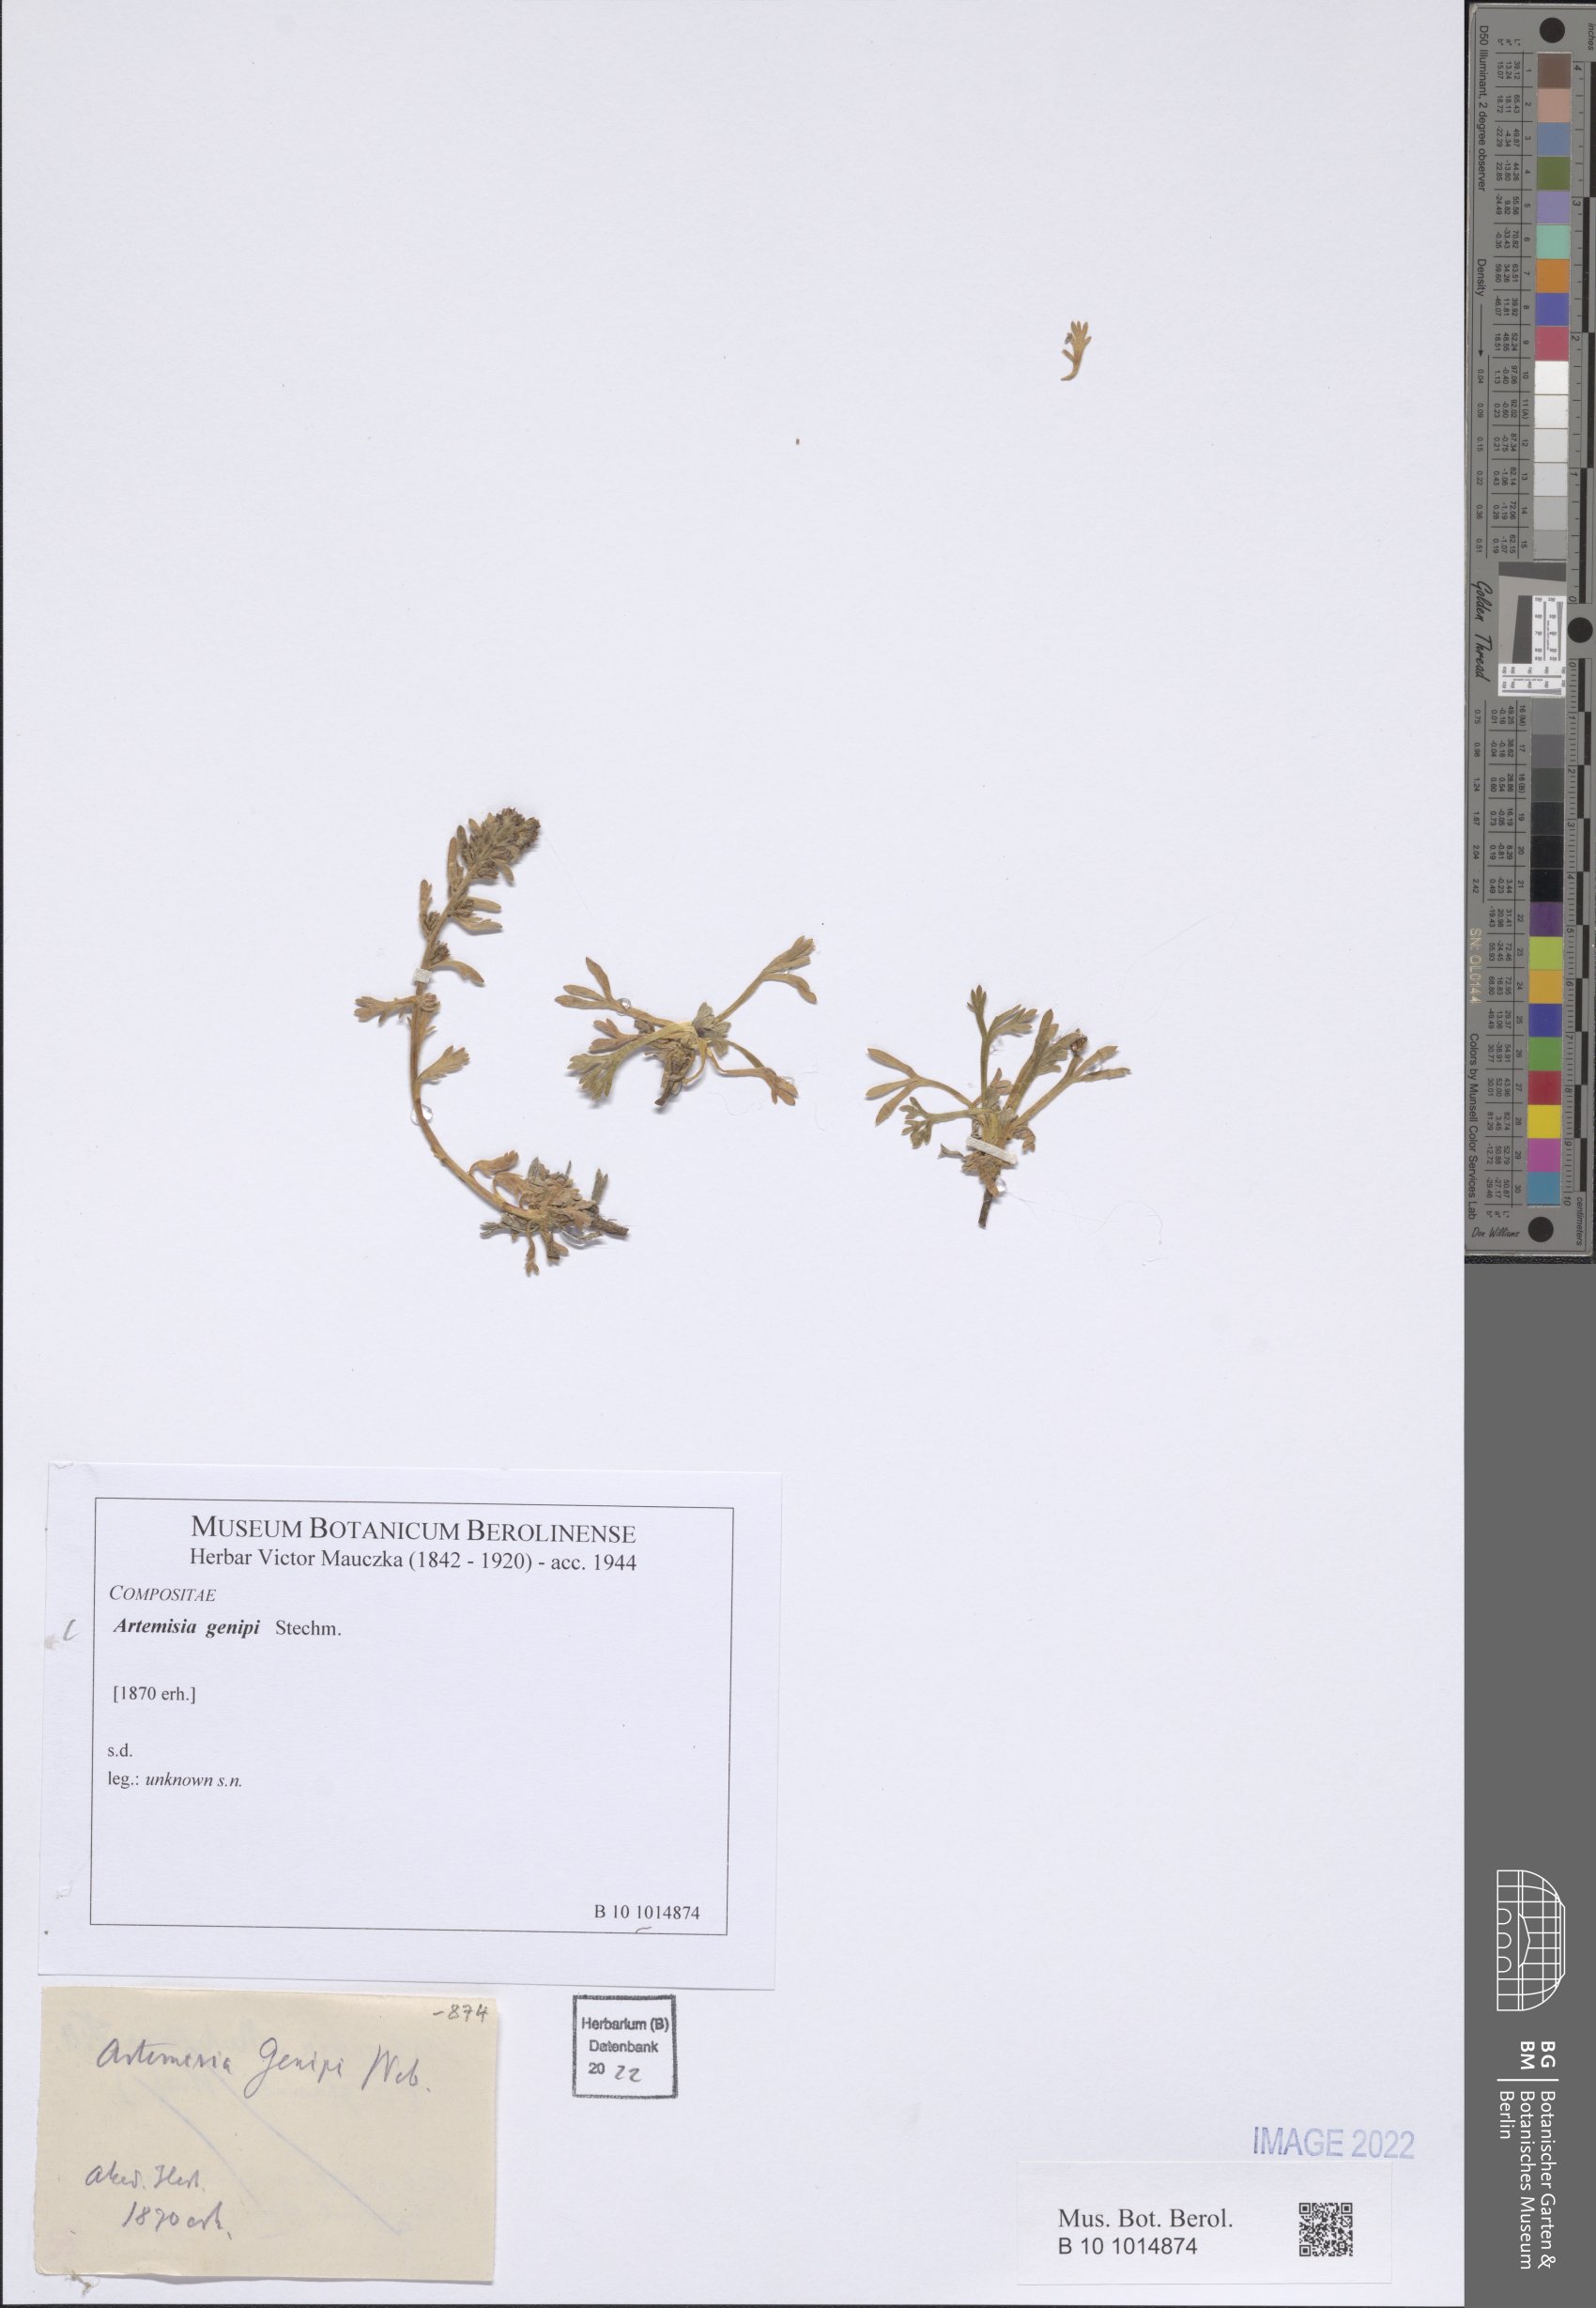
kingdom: Plantae
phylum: Tracheophyta
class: Magnoliopsida
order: Asterales
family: Asteraceae
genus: Artemisia
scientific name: Artemisia genipi
